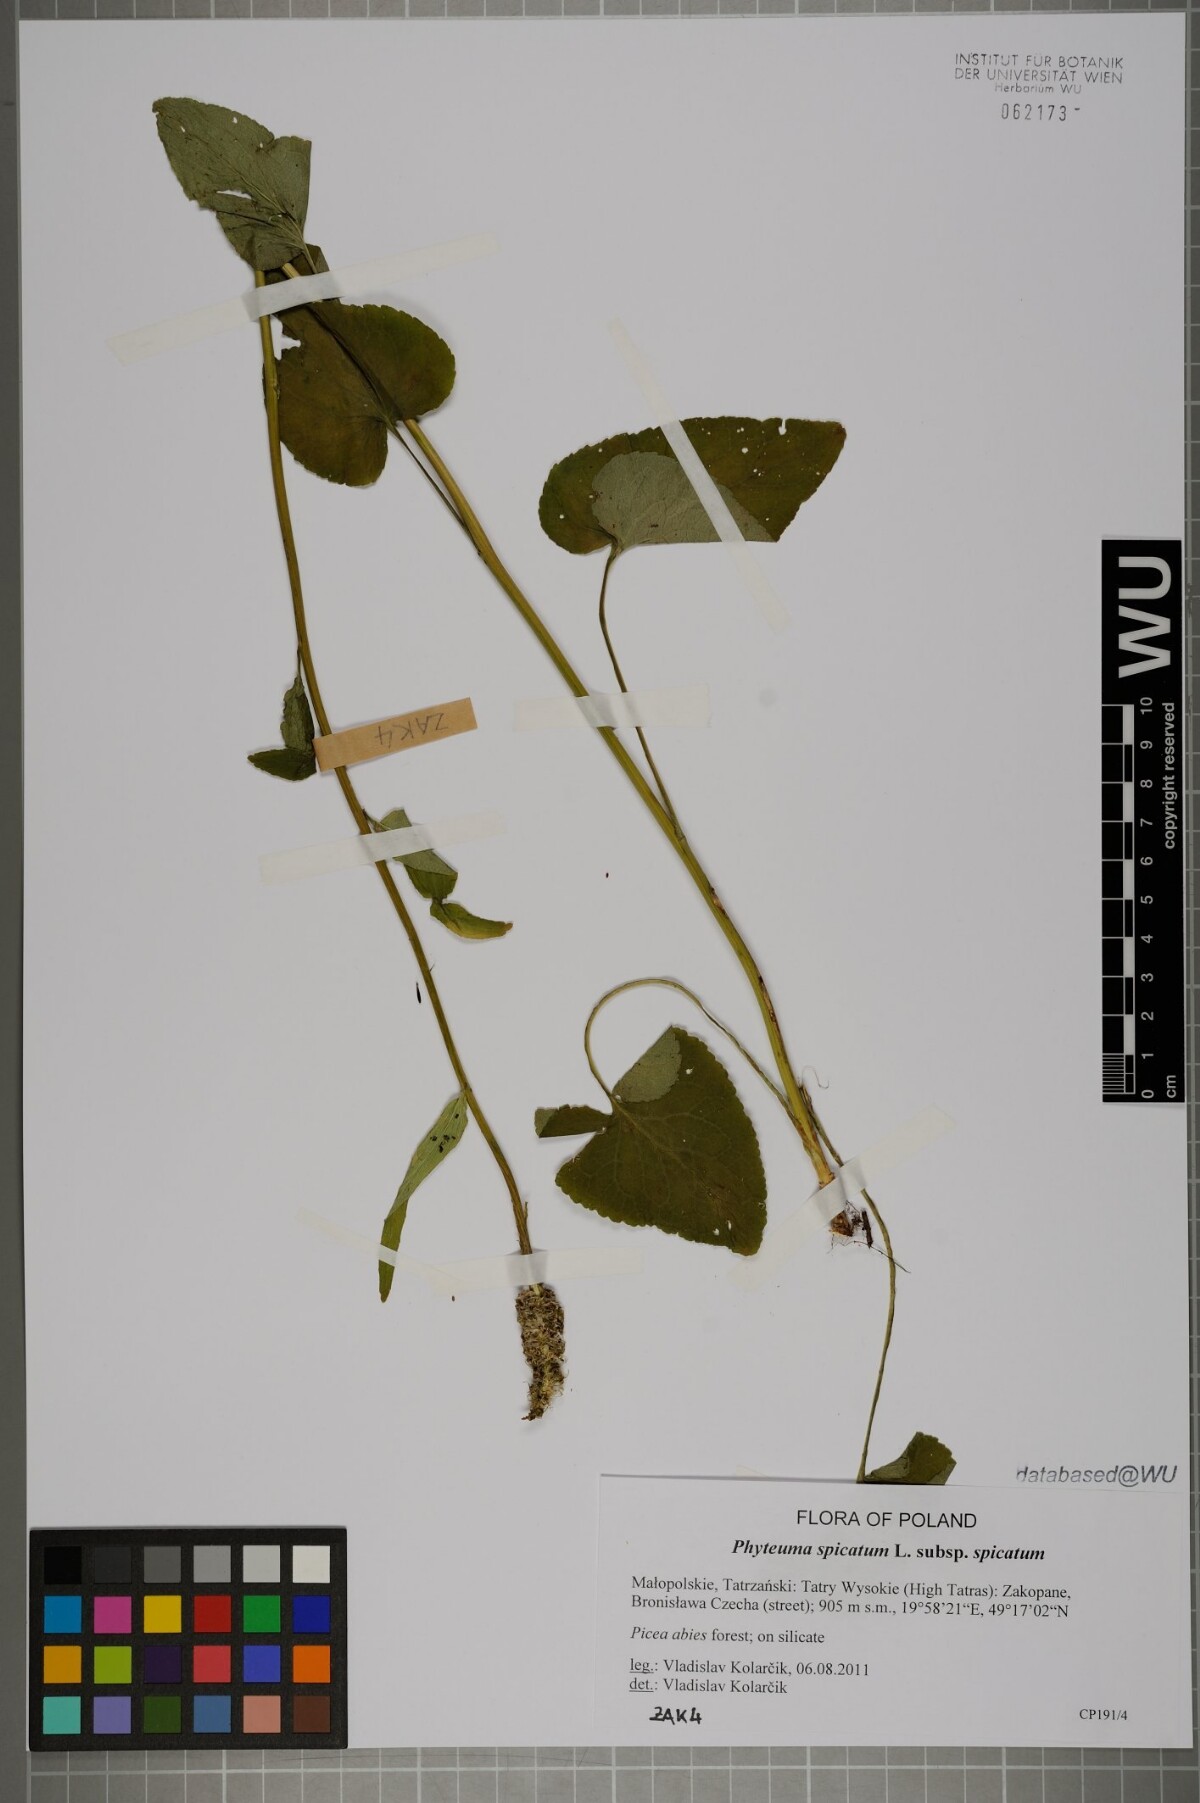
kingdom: Plantae
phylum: Tracheophyta
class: Magnoliopsida
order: Asterales
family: Campanulaceae
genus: Phyteuma
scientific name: Phyteuma spicatum
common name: Spiked rampion
